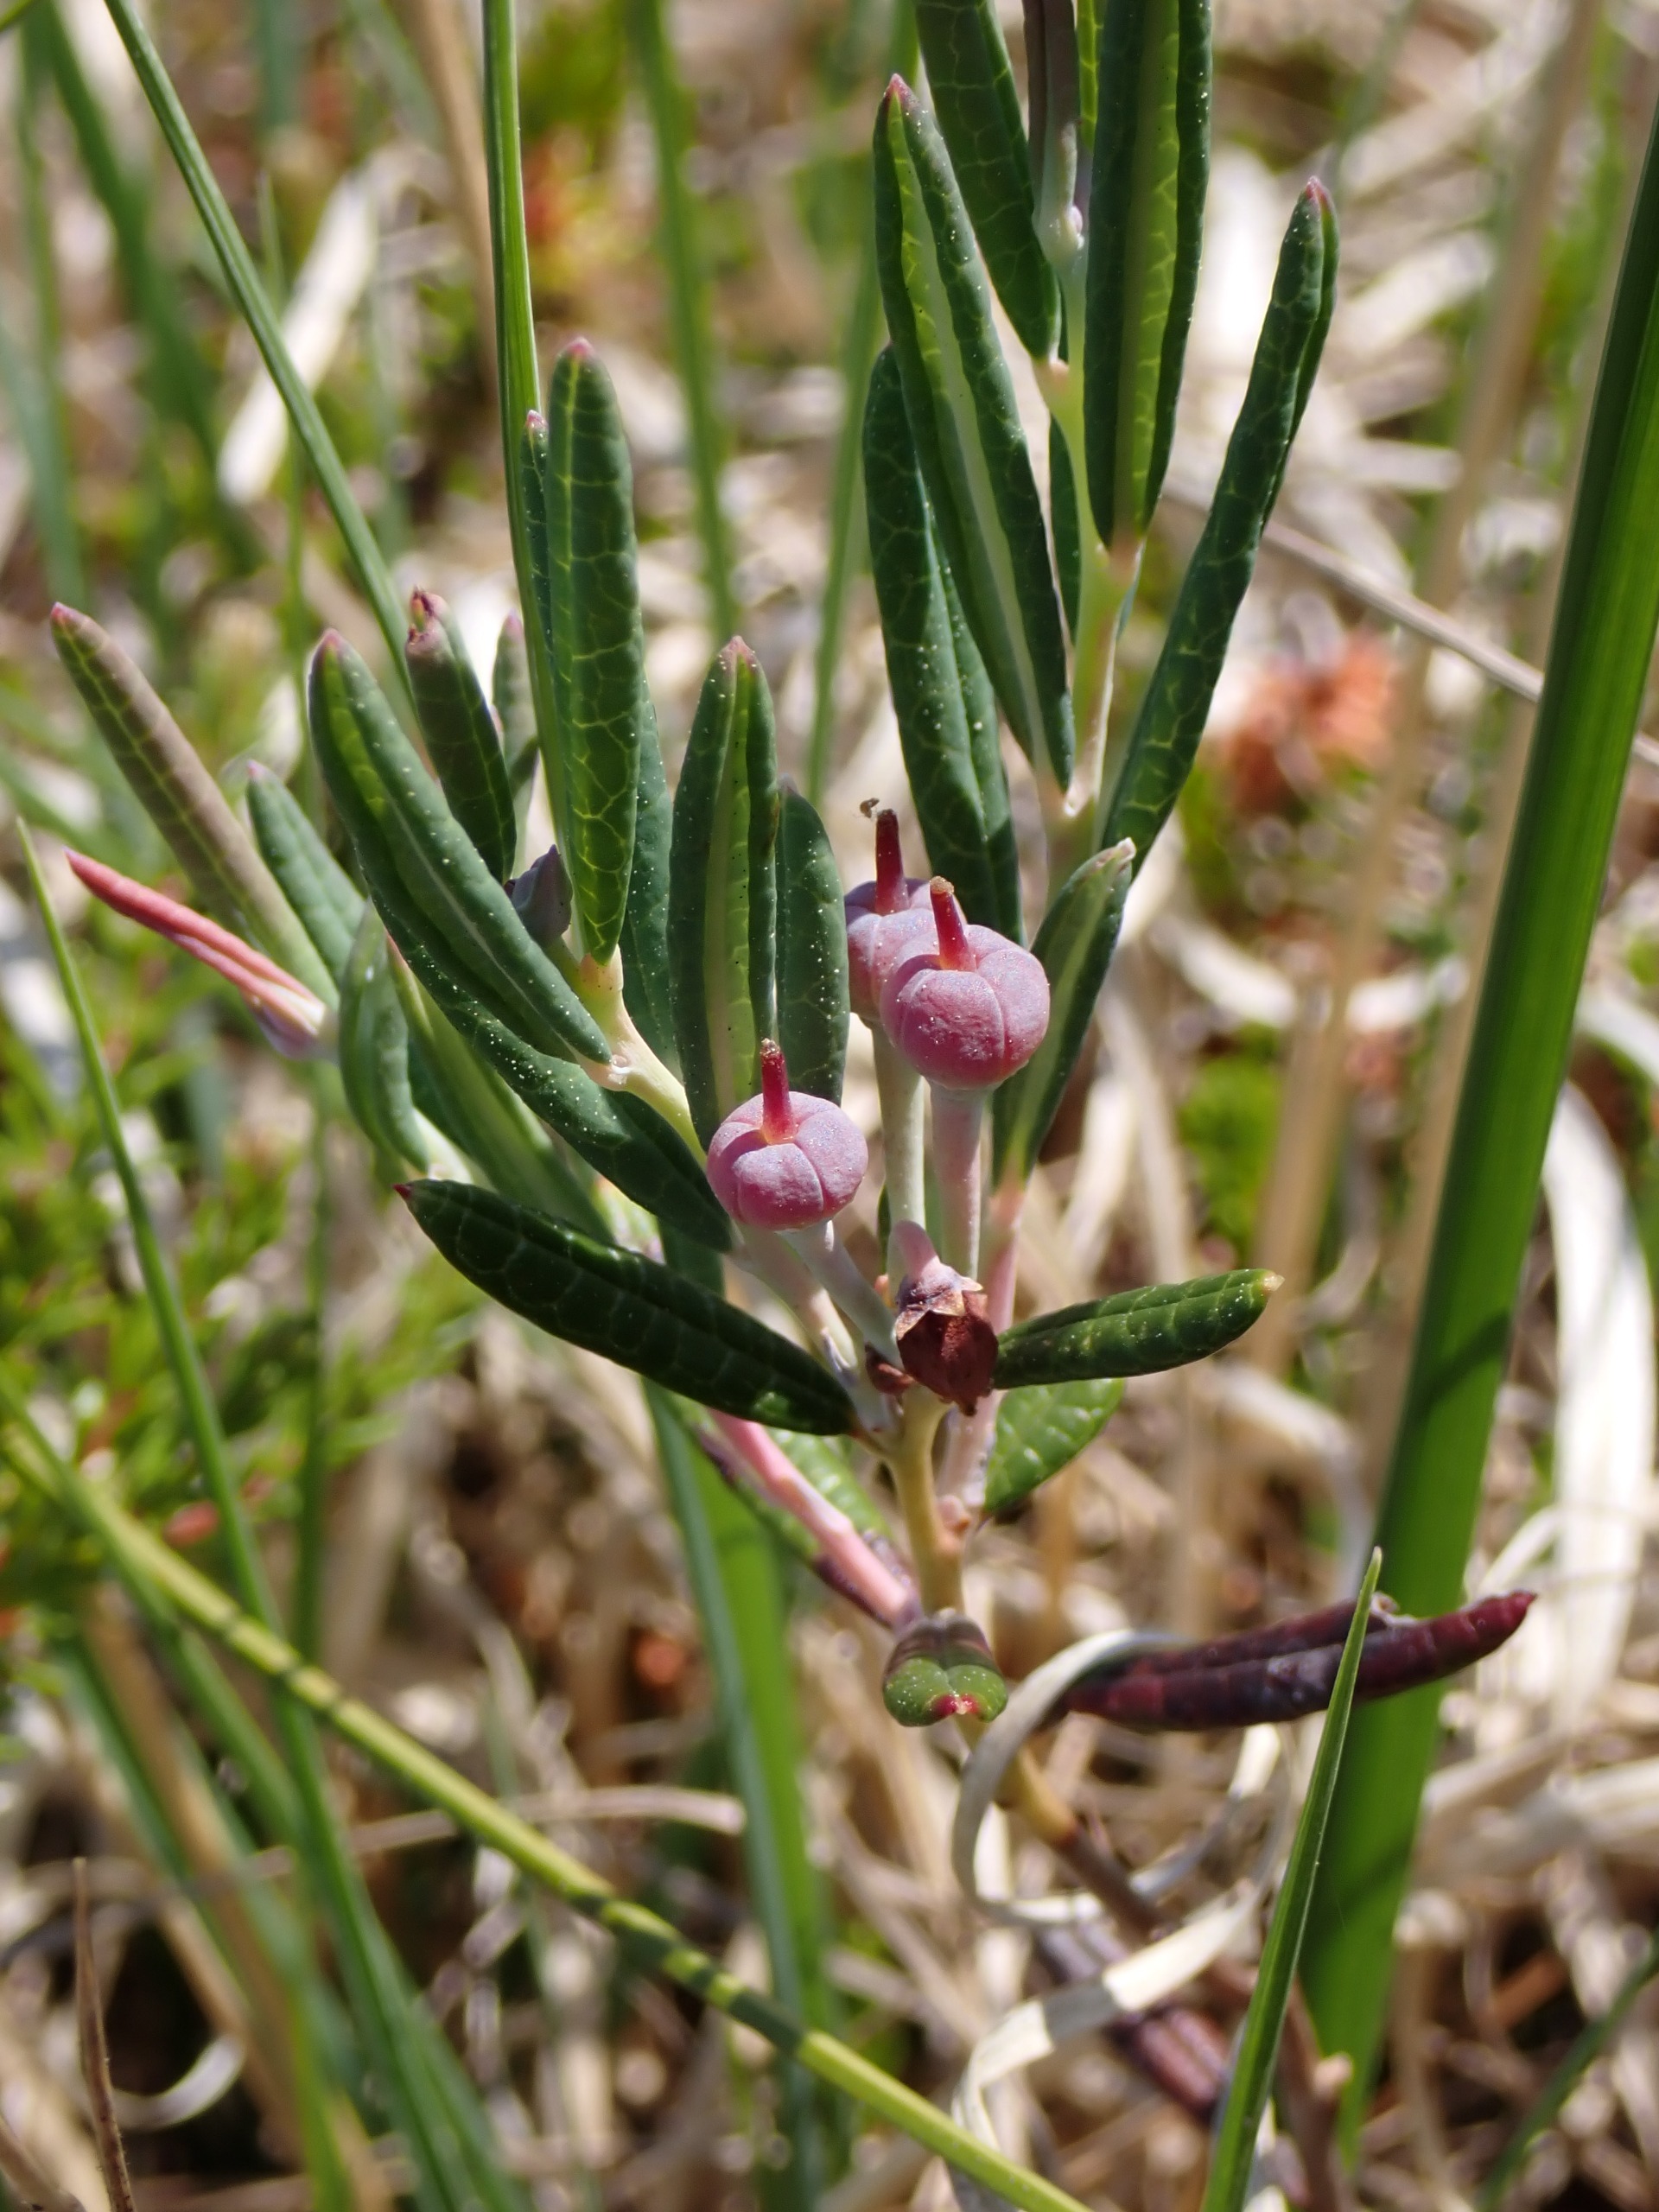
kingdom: Plantae
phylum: Tracheophyta
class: Magnoliopsida
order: Ericales
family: Ericaceae
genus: Andromeda
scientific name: Andromeda polifolia
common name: Rosmarinlyng
